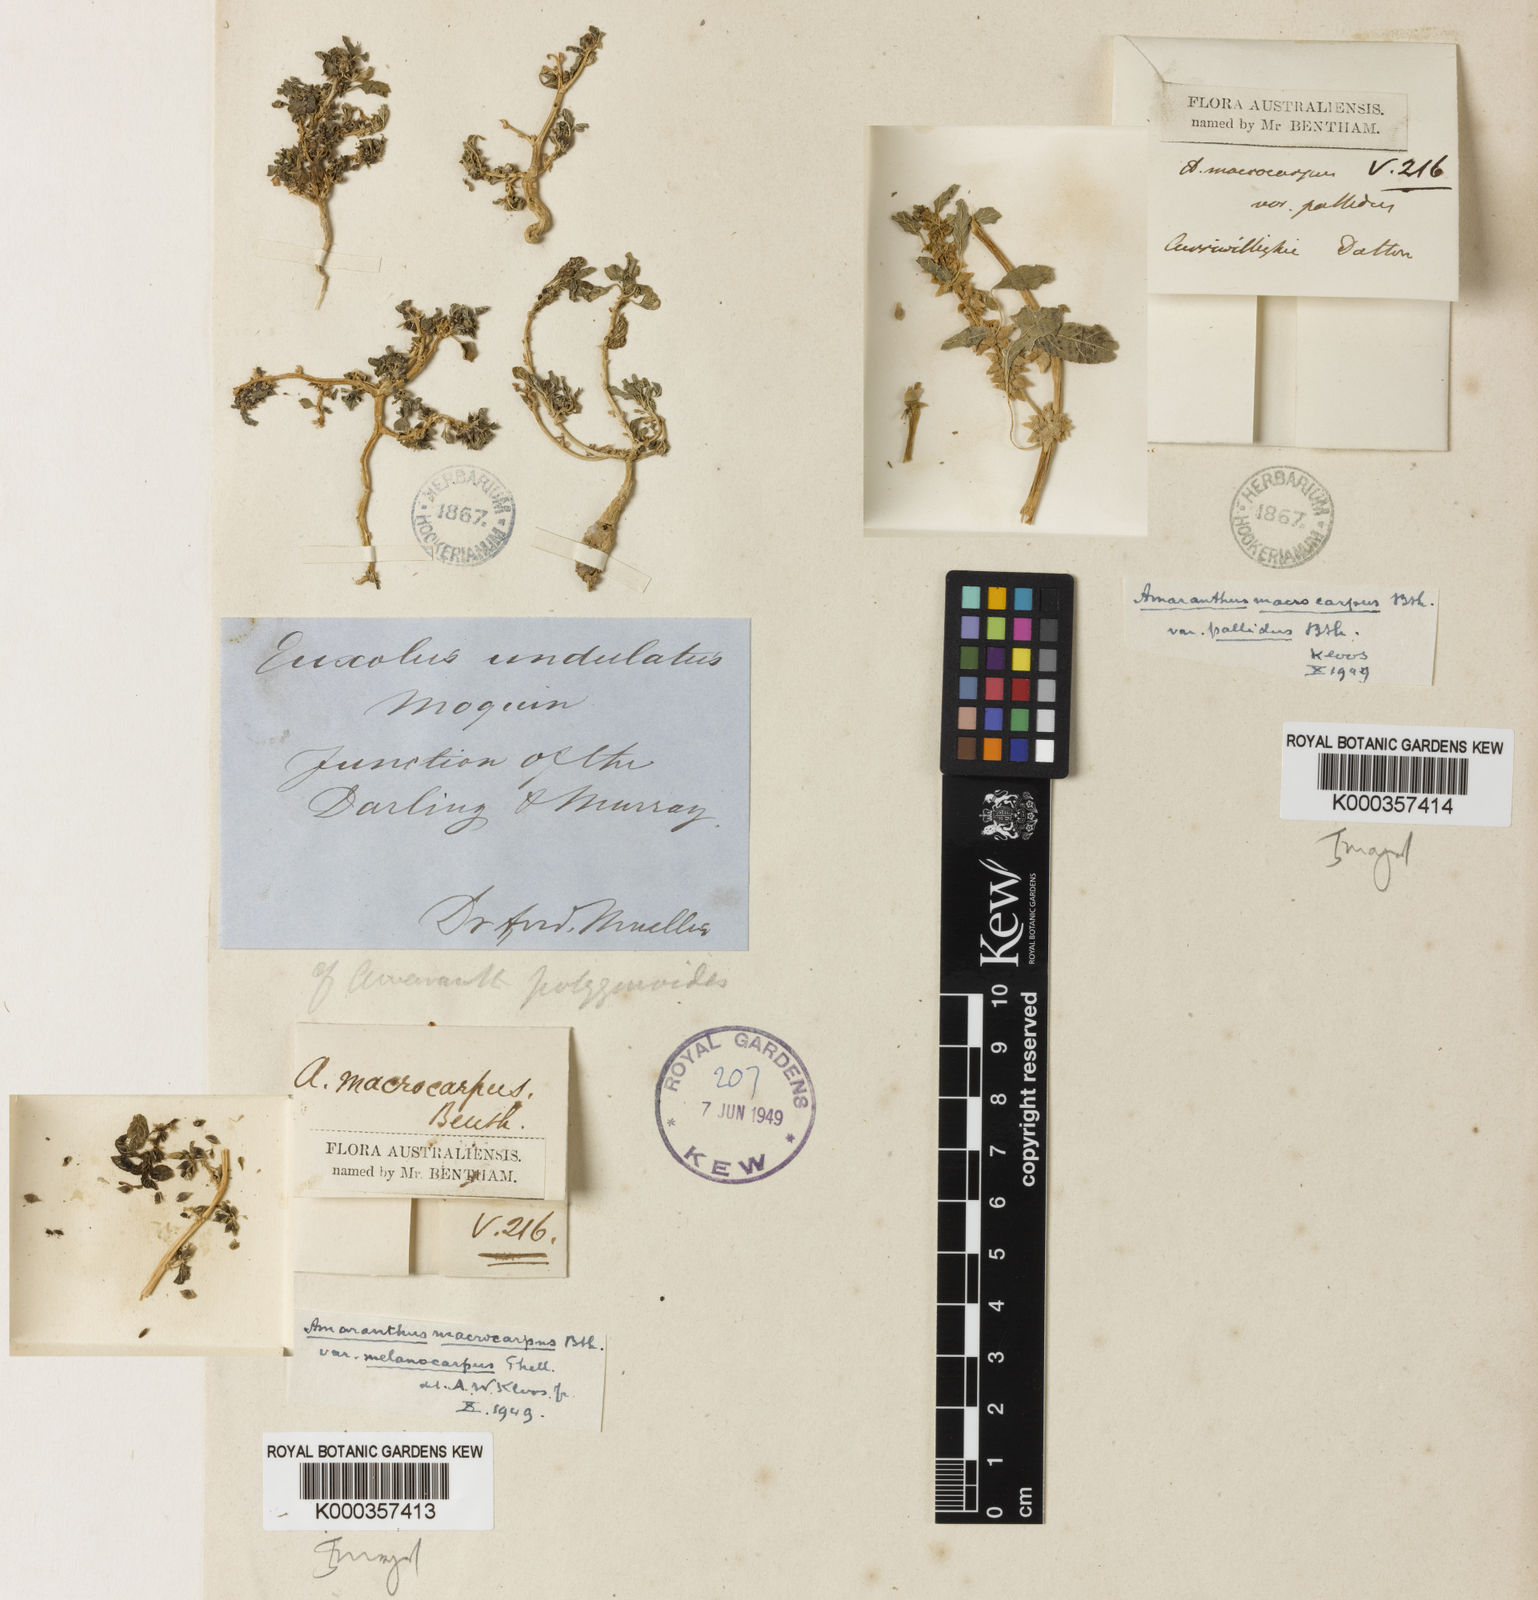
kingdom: Plantae
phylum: Tracheophyta
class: Magnoliopsida
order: Caryophyllales
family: Amaranthaceae
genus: Amaranthus
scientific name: Amaranthus macrocarpus
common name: Desert amaranth
